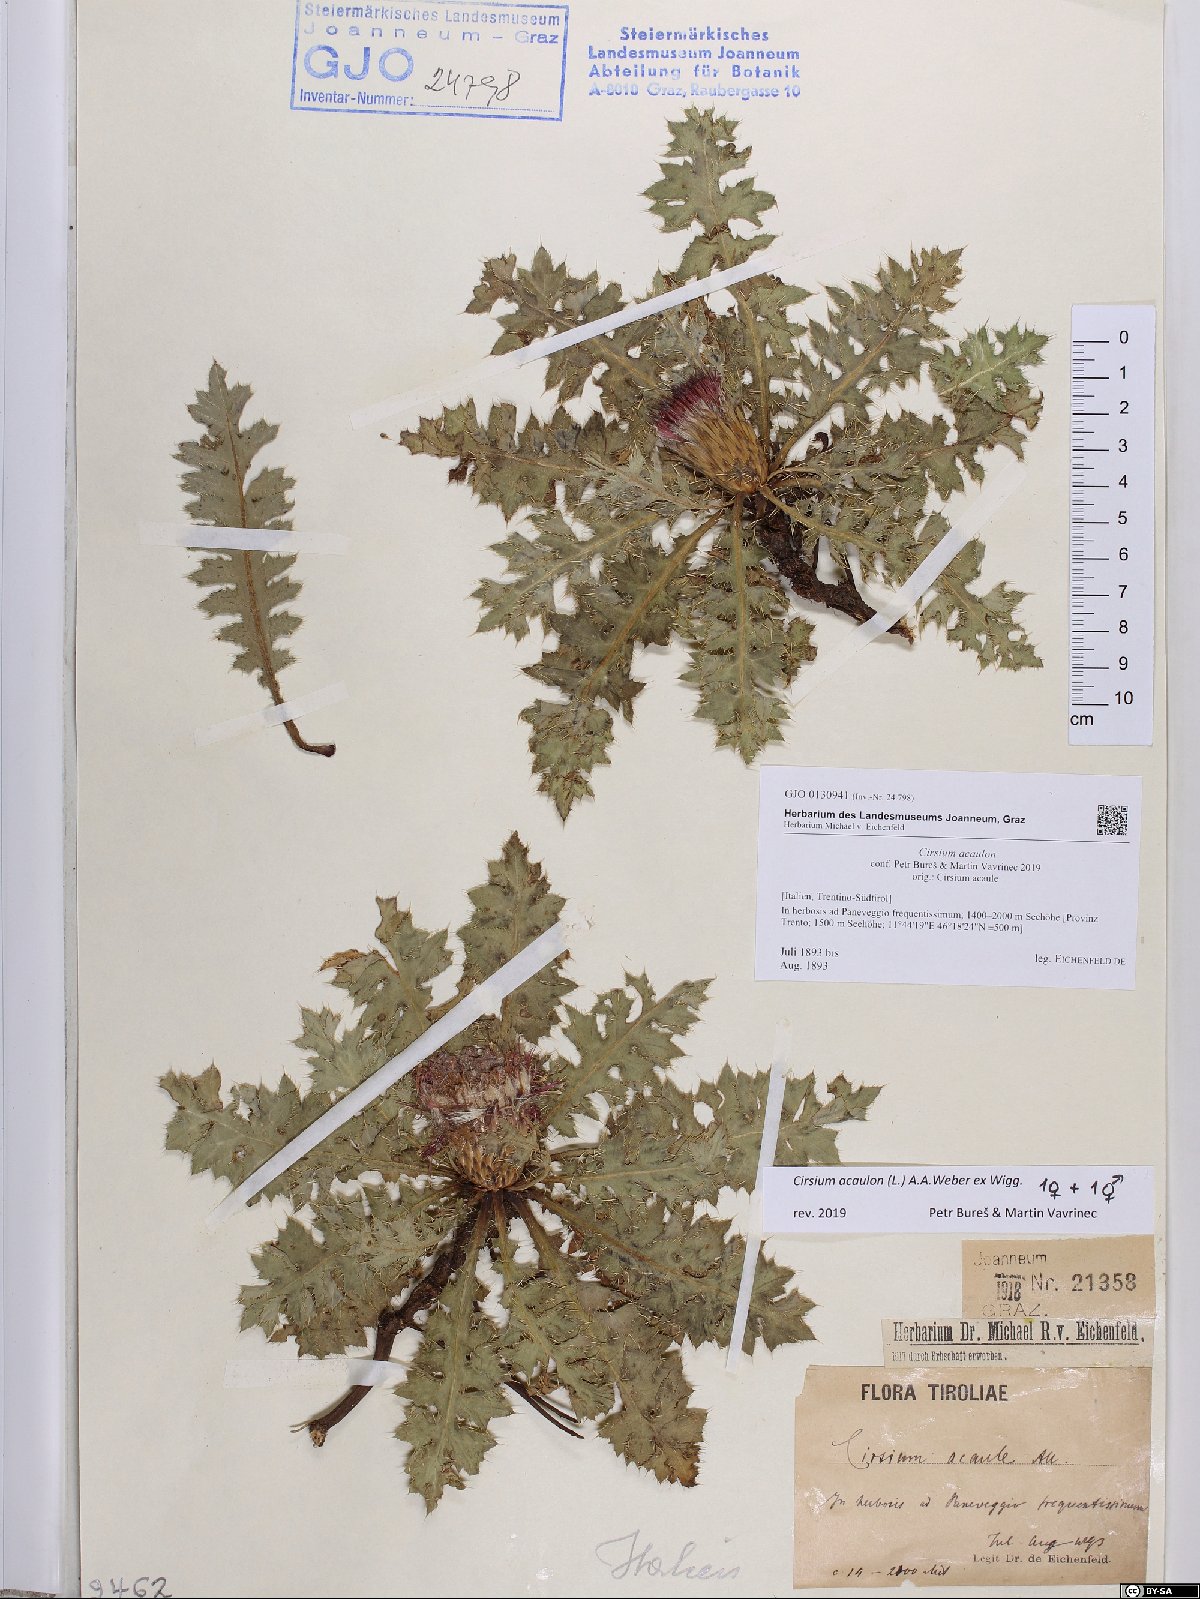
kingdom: Plantae
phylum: Tracheophyta
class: Magnoliopsida
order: Asterales
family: Asteraceae
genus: Cirsium
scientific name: Cirsium acaulon
